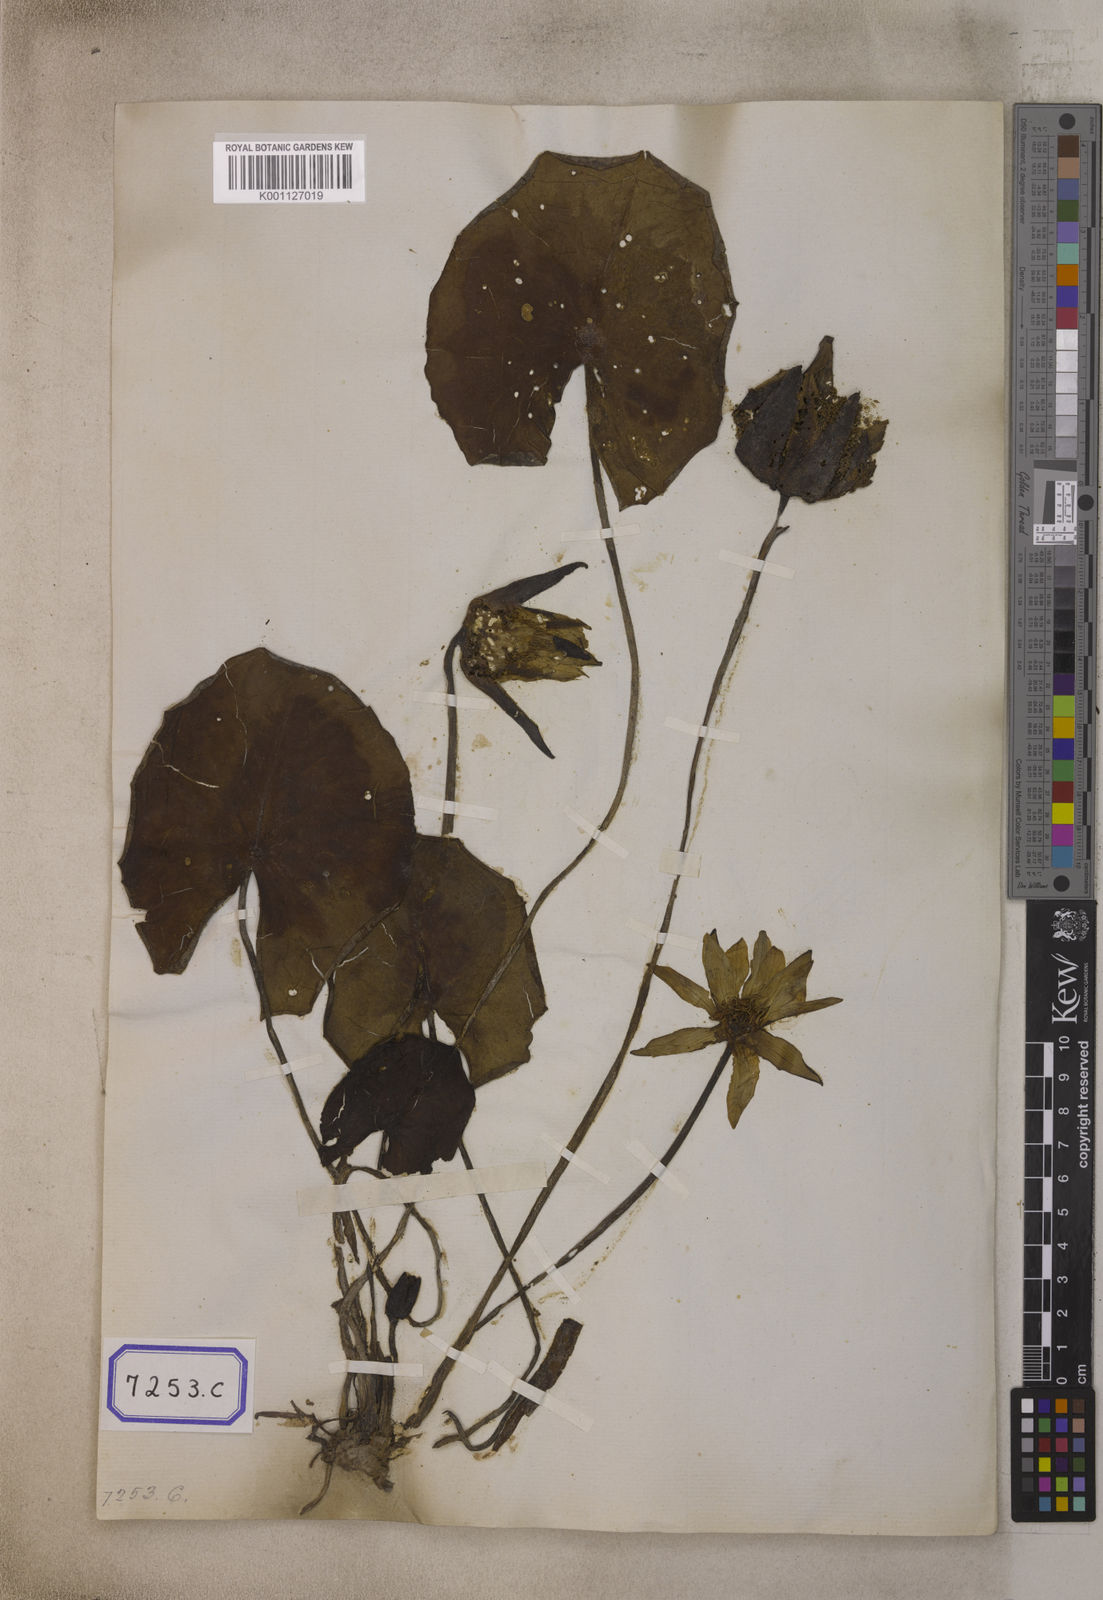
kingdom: Plantae
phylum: Tracheophyta
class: Magnoliopsida
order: Nymphaeales
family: Nymphaeaceae
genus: Nymphaea
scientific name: Nymphaea nouchali
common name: Blue lotus
